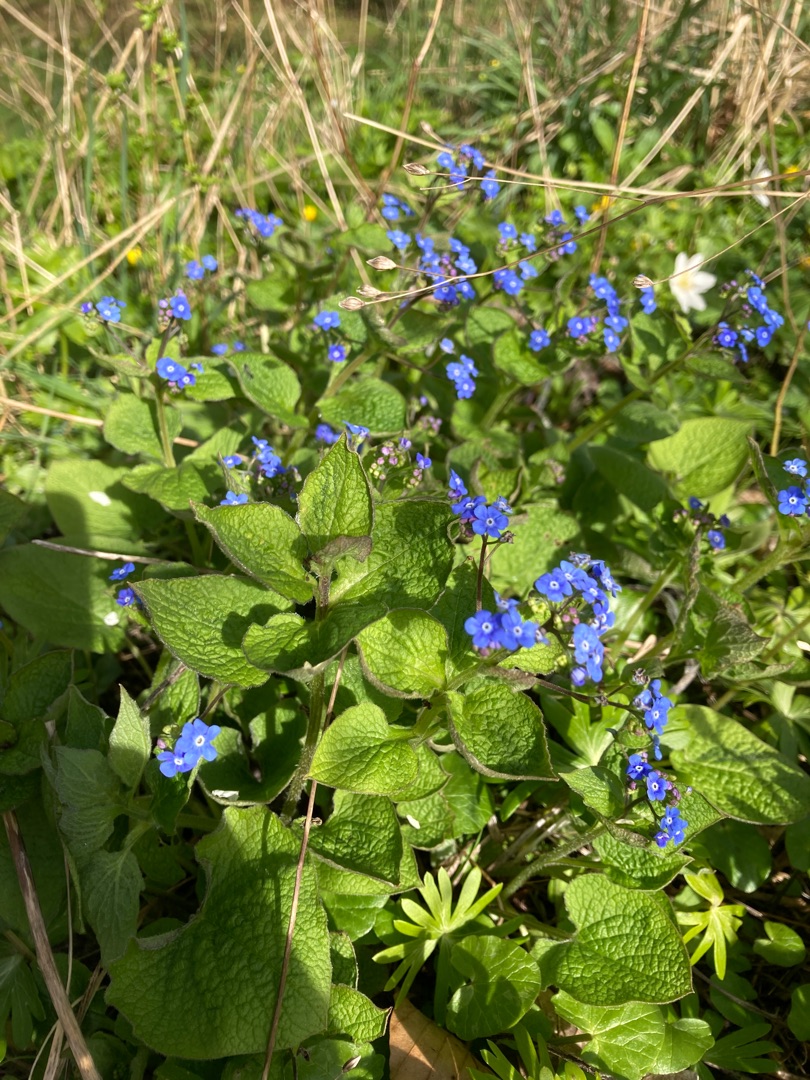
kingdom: Plantae
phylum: Tracheophyta
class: Magnoliopsida
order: Boraginales
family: Boraginaceae
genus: Brunnera
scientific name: Brunnera macrophylla
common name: Kærmindesøster
